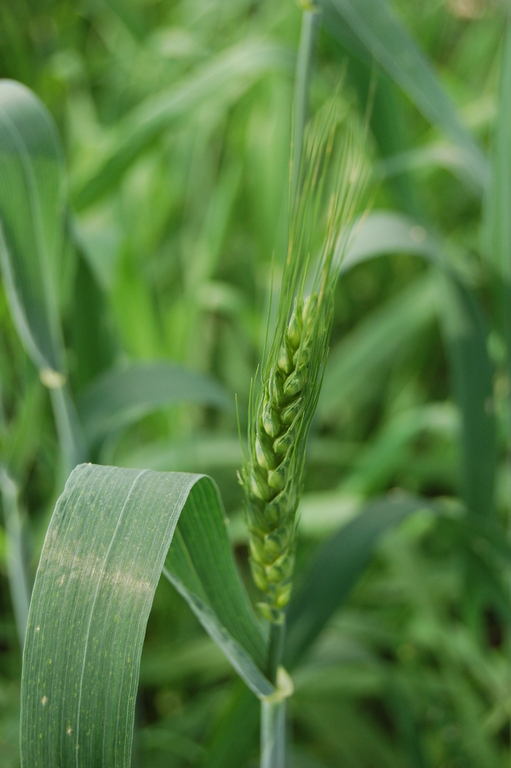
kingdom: Plantae
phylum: Tracheophyta
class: Liliopsida
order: Poales
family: Poaceae
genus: Triticum
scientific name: Triticum aestivum
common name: Common wheat
